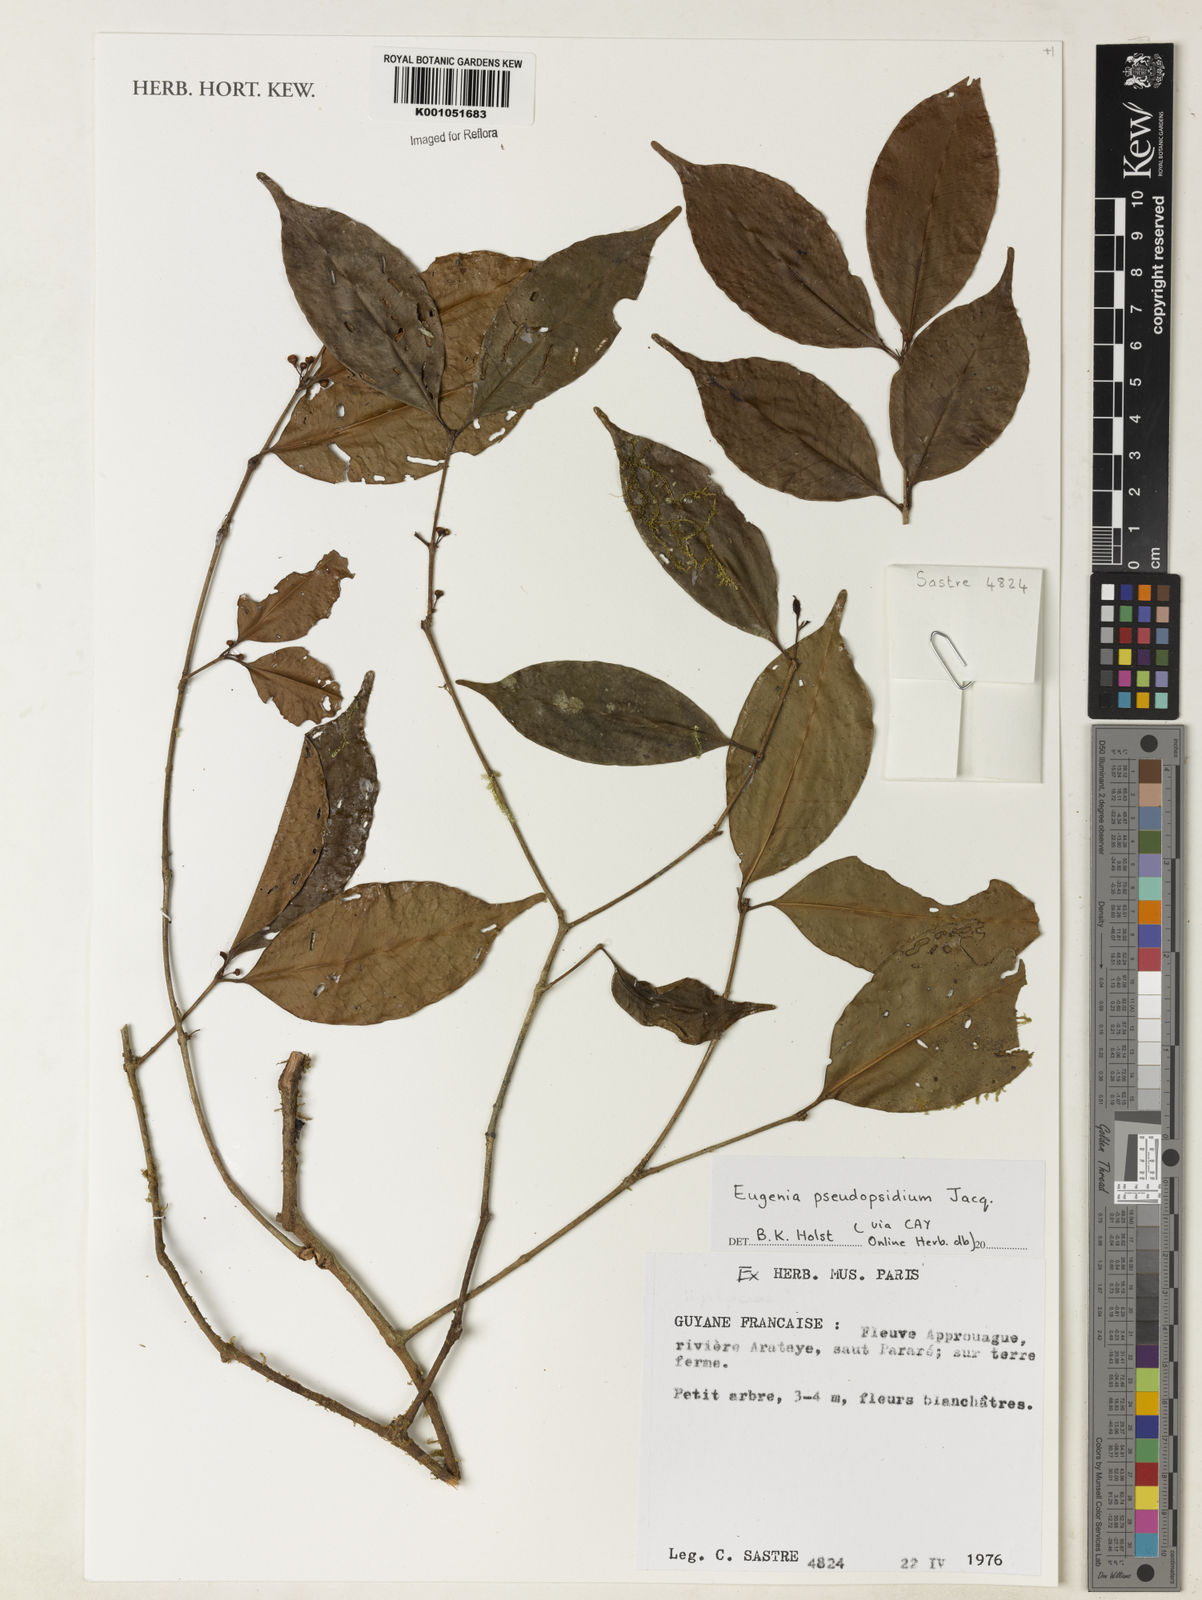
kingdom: Plantae
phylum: Tracheophyta
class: Magnoliopsida
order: Myrtales
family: Myrtaceae
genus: Eugenia
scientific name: Eugenia pseudopsidium
